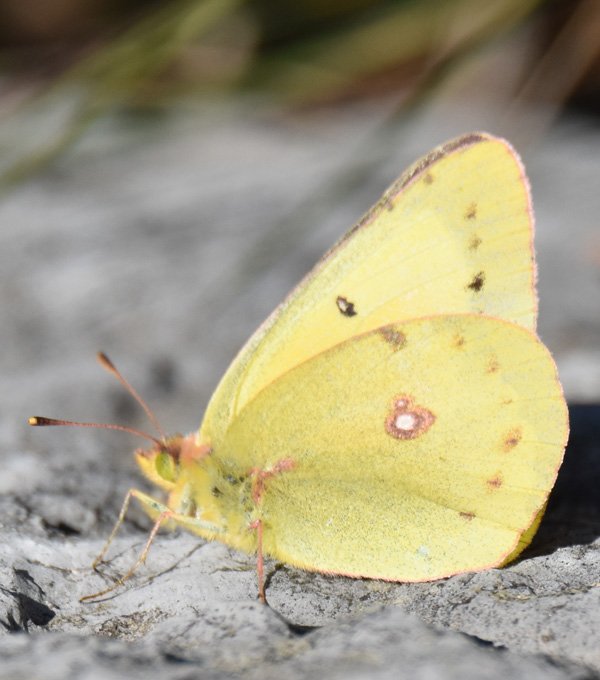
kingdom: Animalia
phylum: Arthropoda
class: Insecta
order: Lepidoptera
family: Pieridae
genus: Colias
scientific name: Colias philodice
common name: Clouded Sulphur
